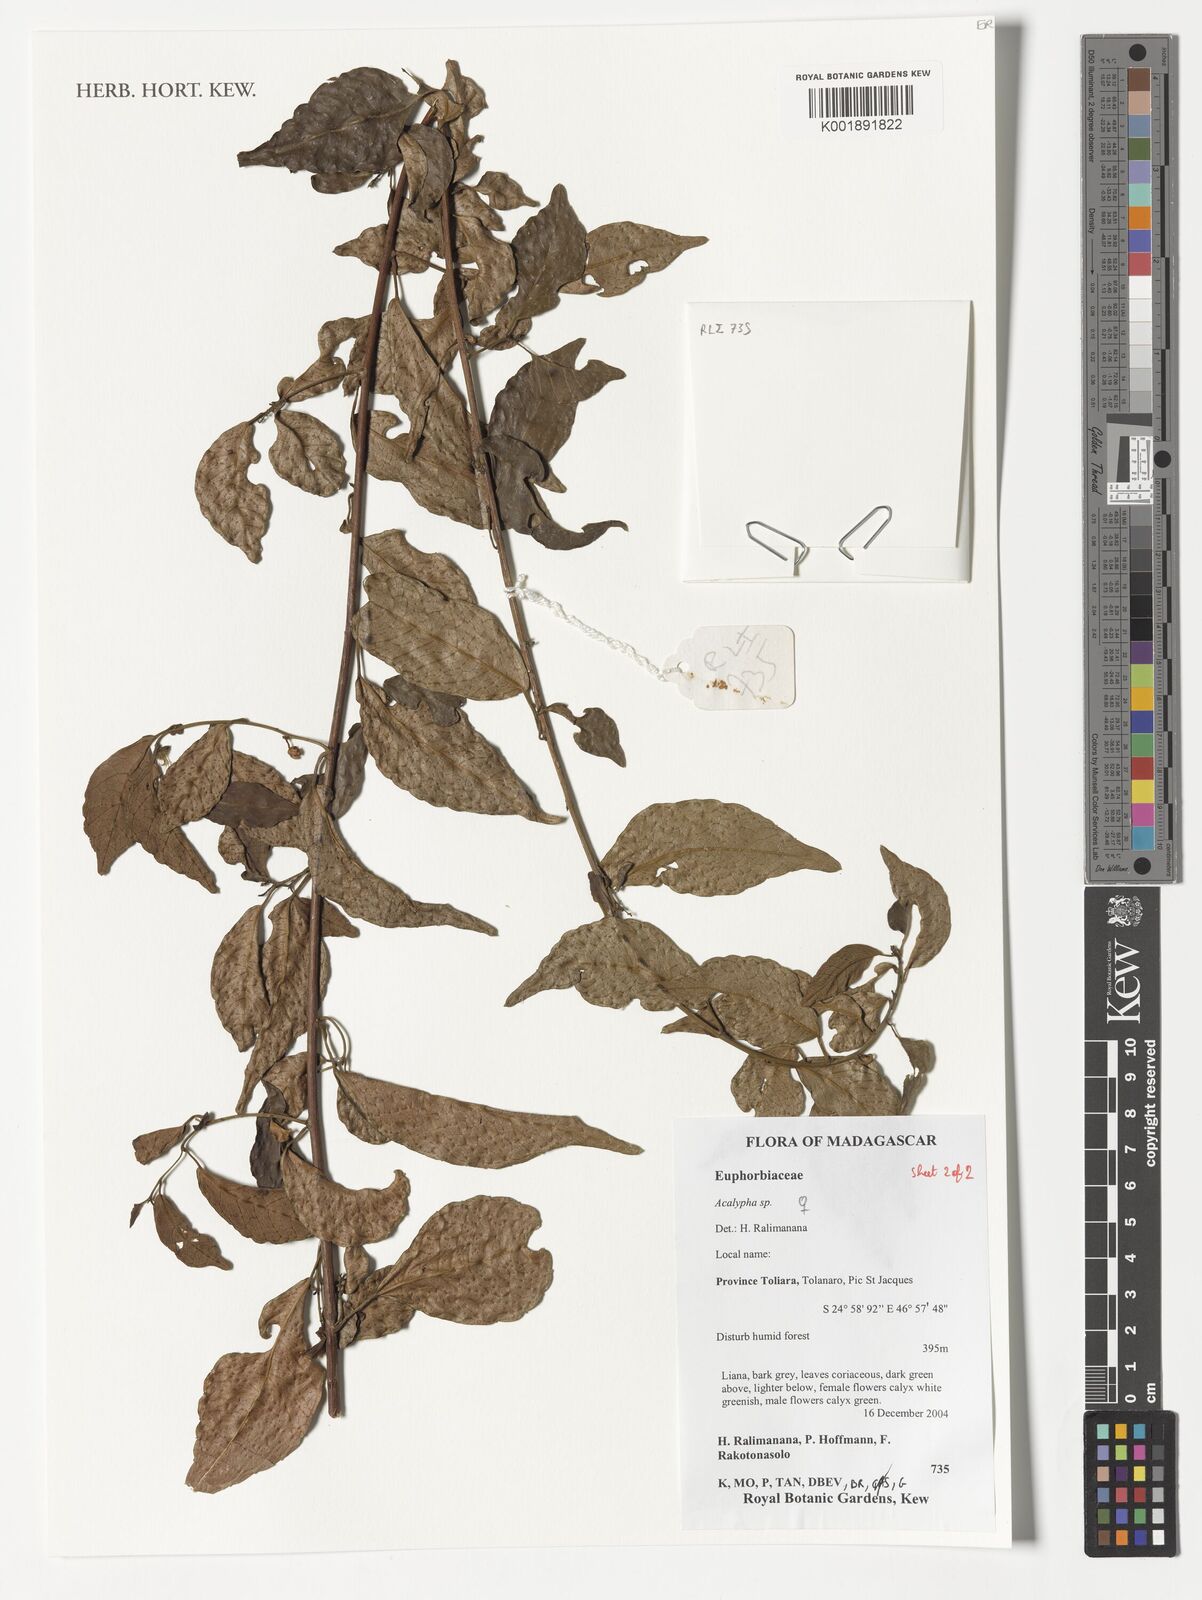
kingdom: Plantae
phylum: Tracheophyta
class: Magnoliopsida
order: Malpighiales
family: Euphorbiaceae
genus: Acalypha
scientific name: Acalypha
